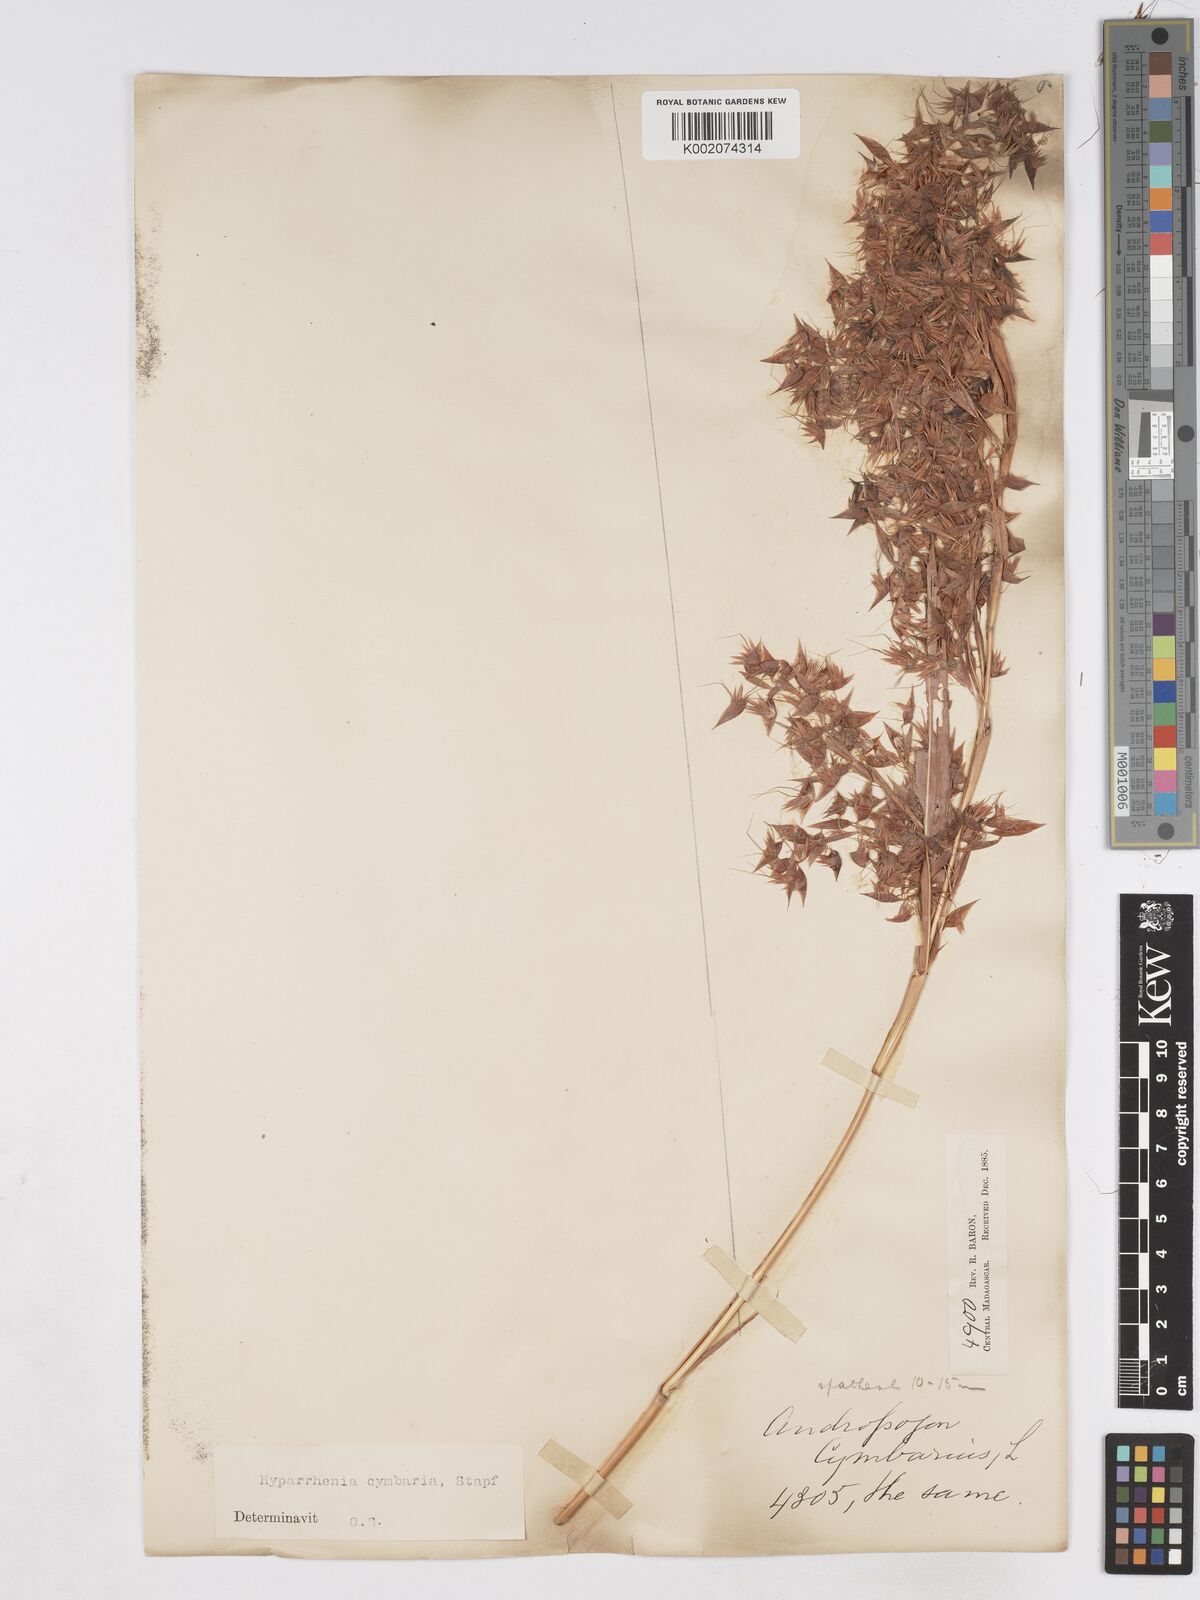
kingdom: Plantae
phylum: Tracheophyta
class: Liliopsida
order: Poales
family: Poaceae
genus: Hyparrhenia
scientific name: Hyparrhenia cymbaria
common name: Boat thatching grass
